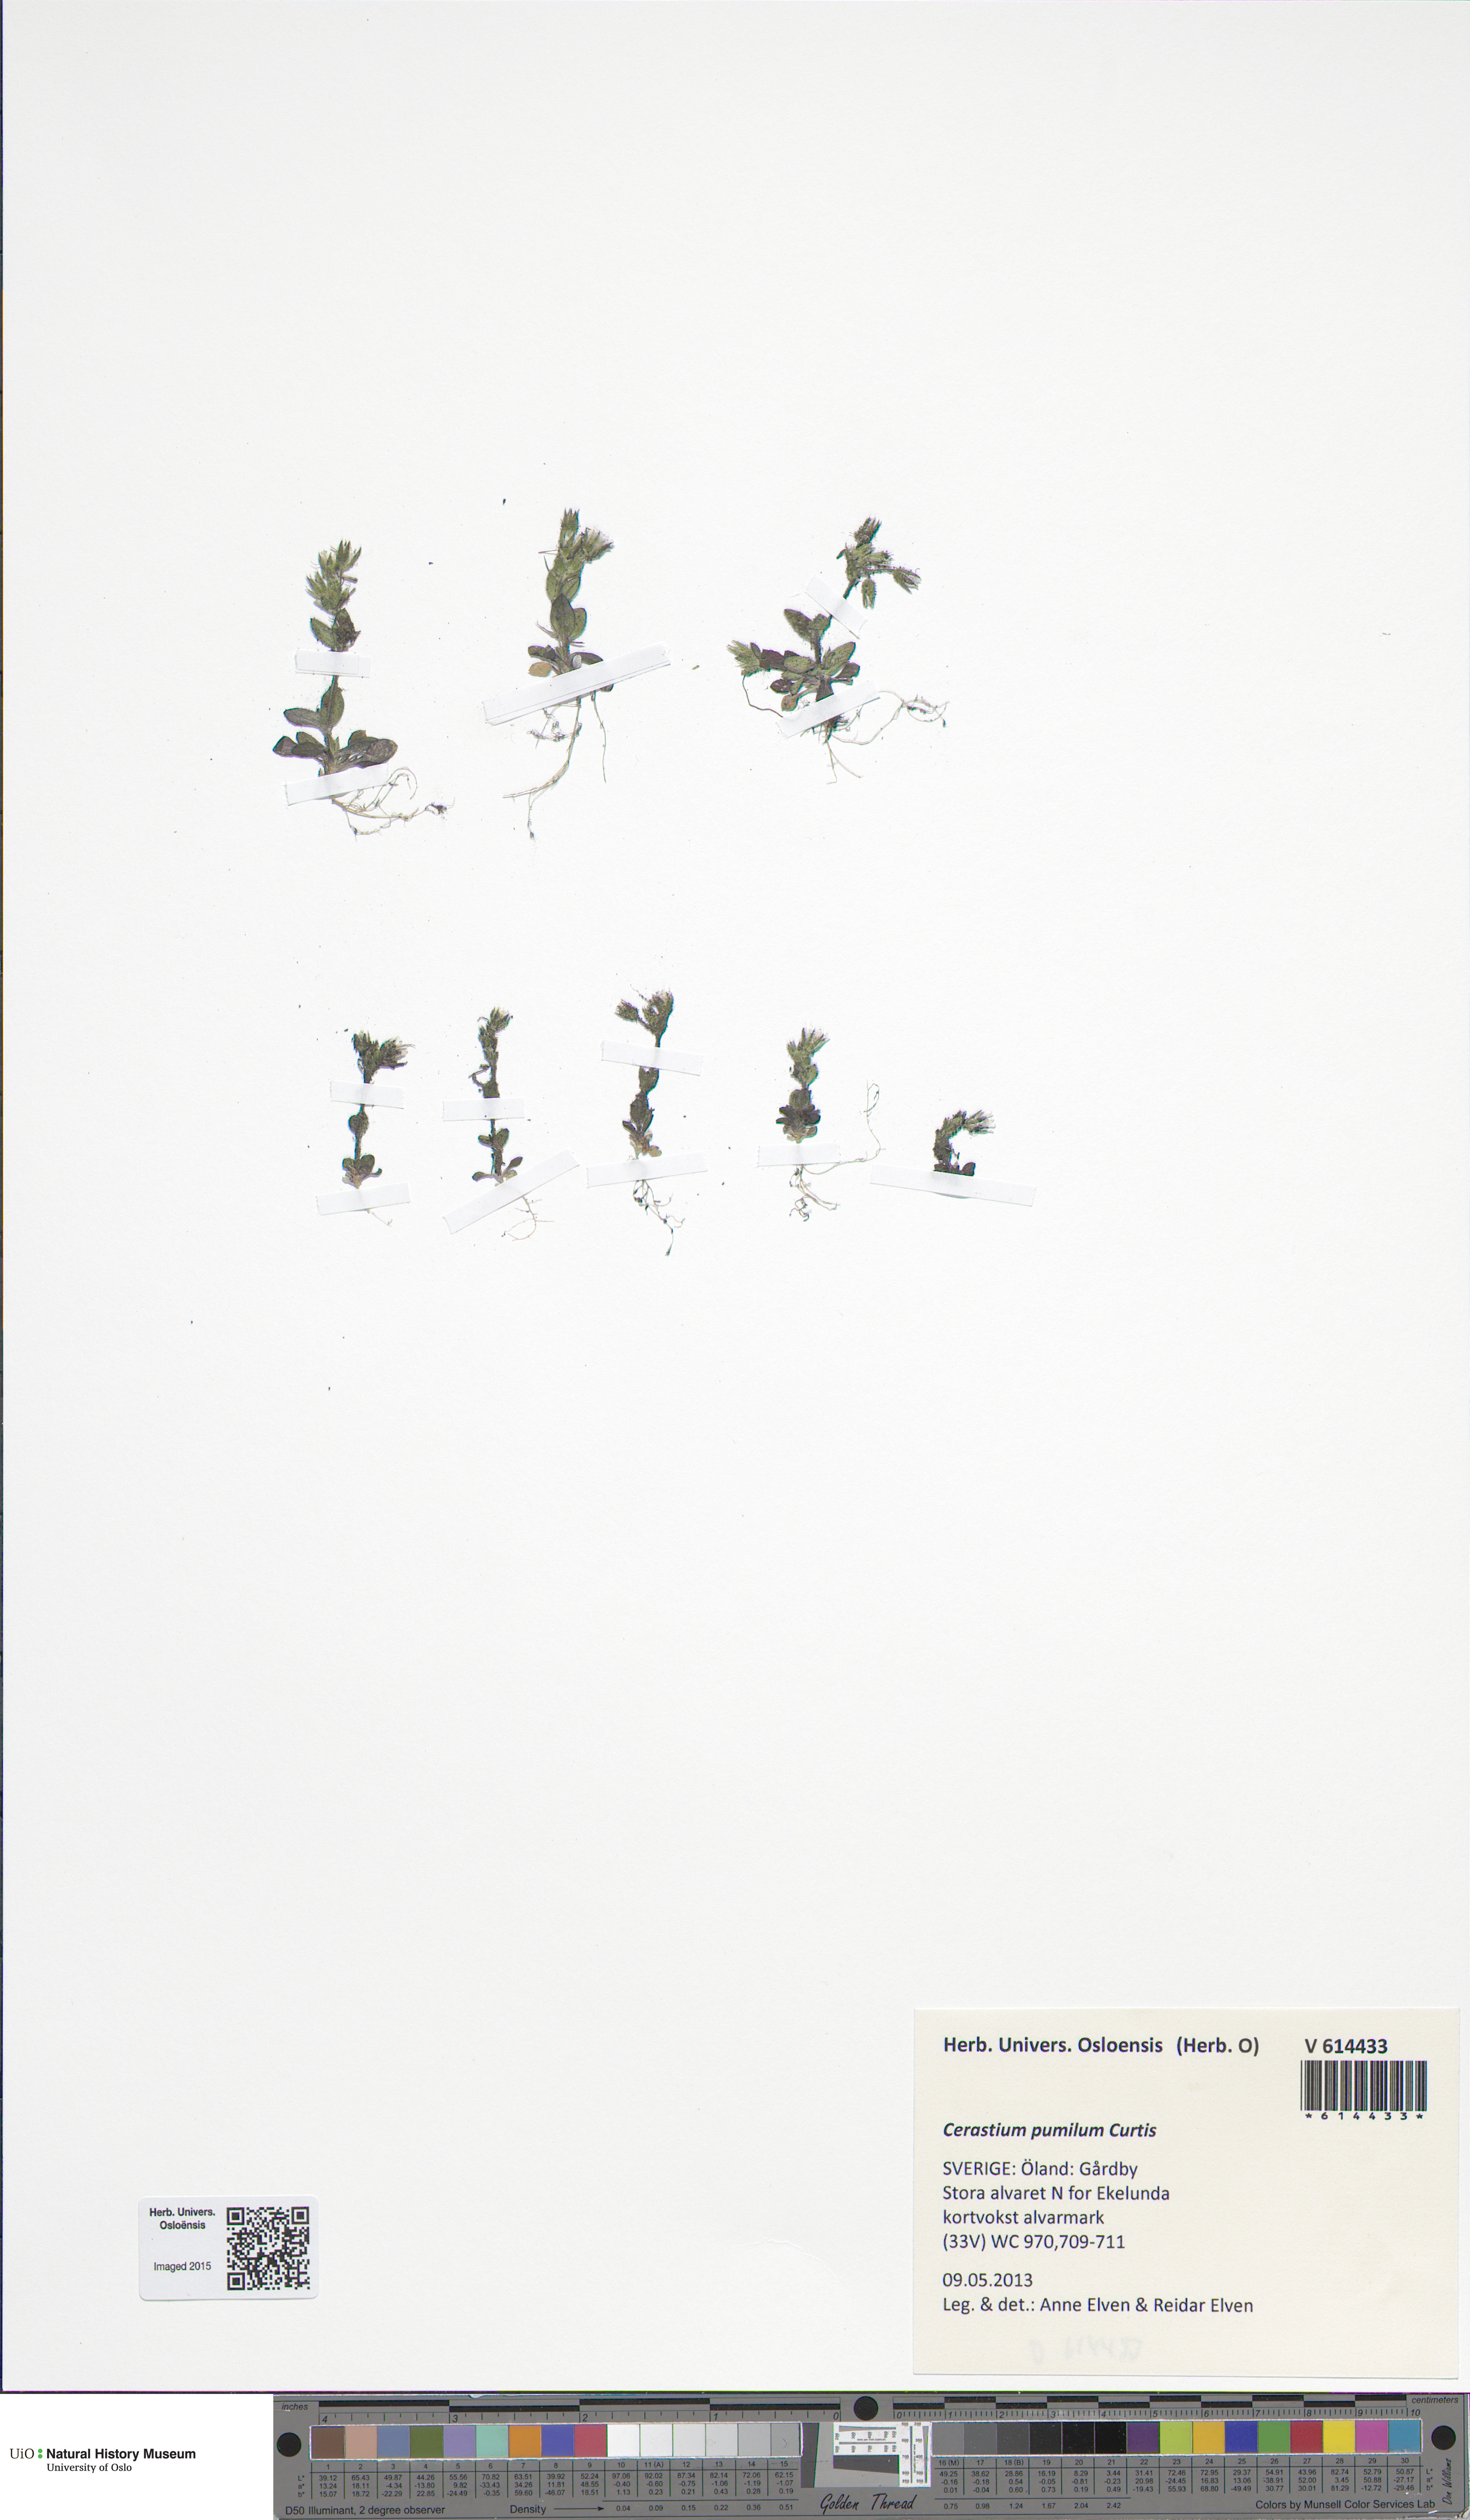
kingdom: Plantae
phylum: Tracheophyta
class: Magnoliopsida
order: Caryophyllales
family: Caryophyllaceae
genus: Cerastium
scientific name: Cerastium pumilum
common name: Dwarf mouse-ear
